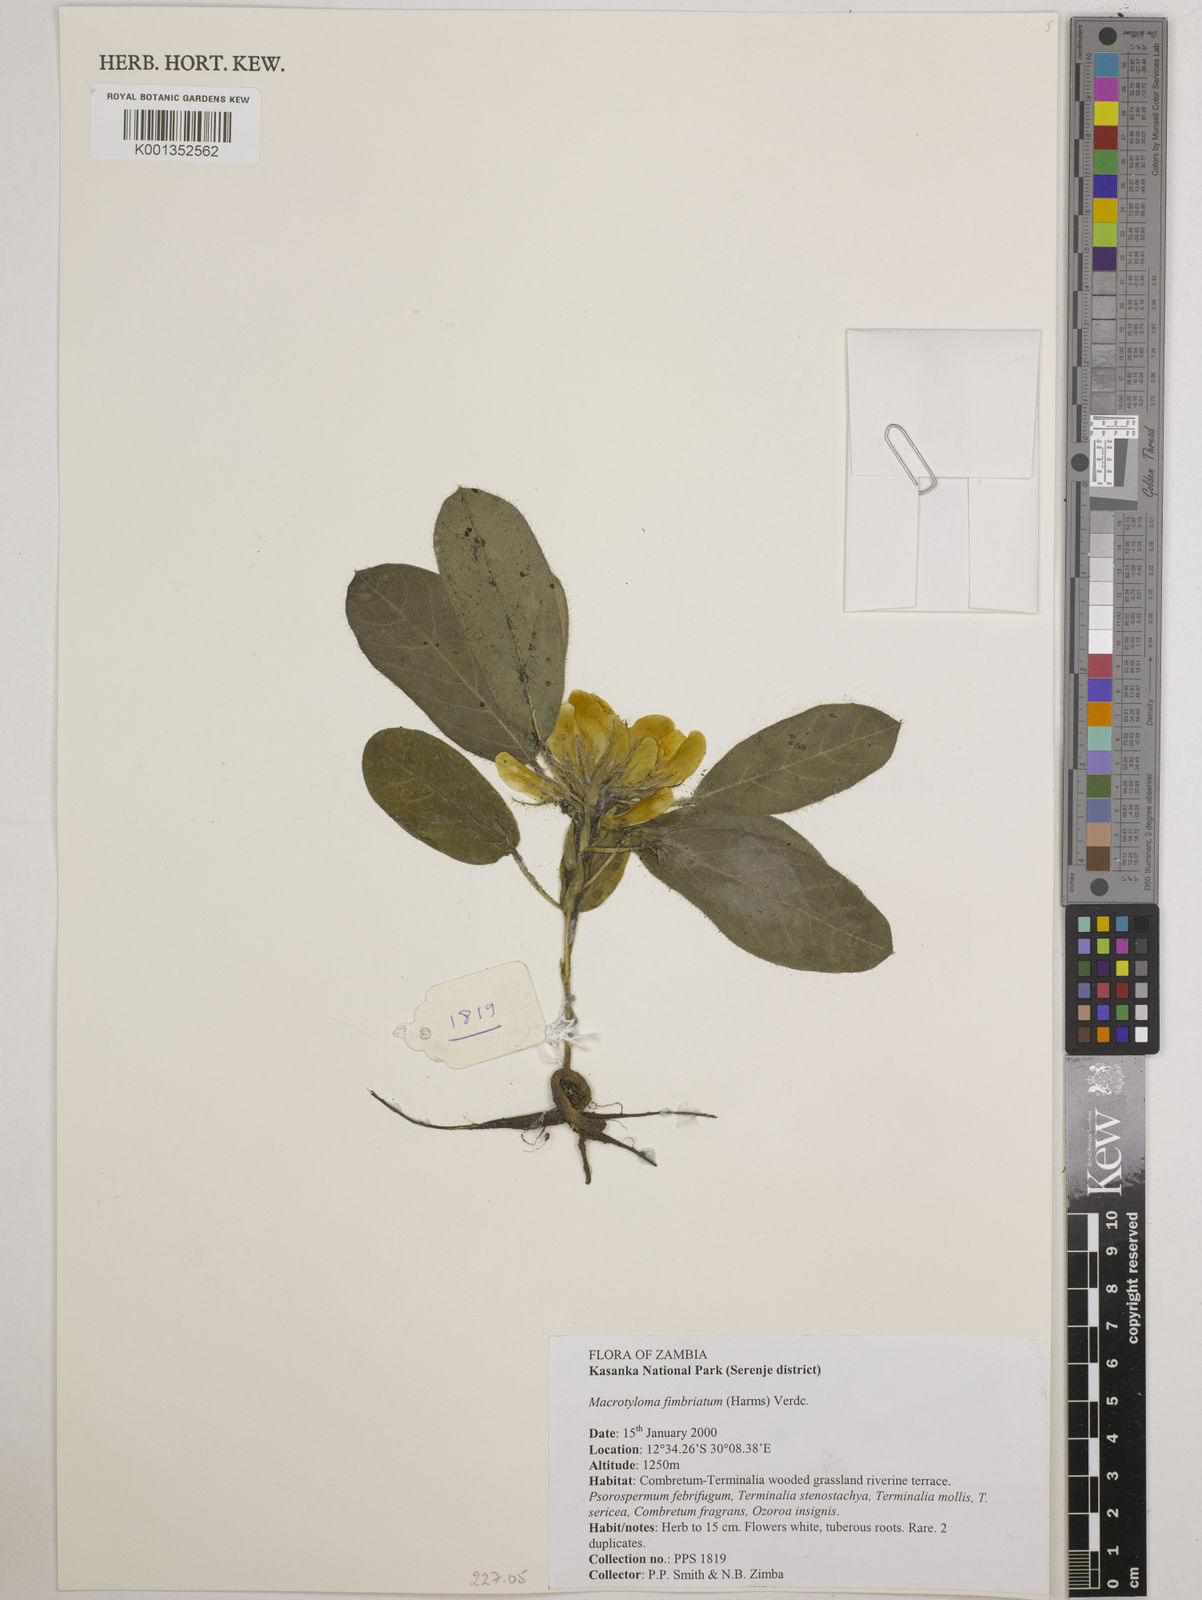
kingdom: Plantae
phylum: Tracheophyta
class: Magnoliopsida
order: Fabales
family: Fabaceae
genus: Macrotyloma
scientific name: Macrotyloma fimbriatum
